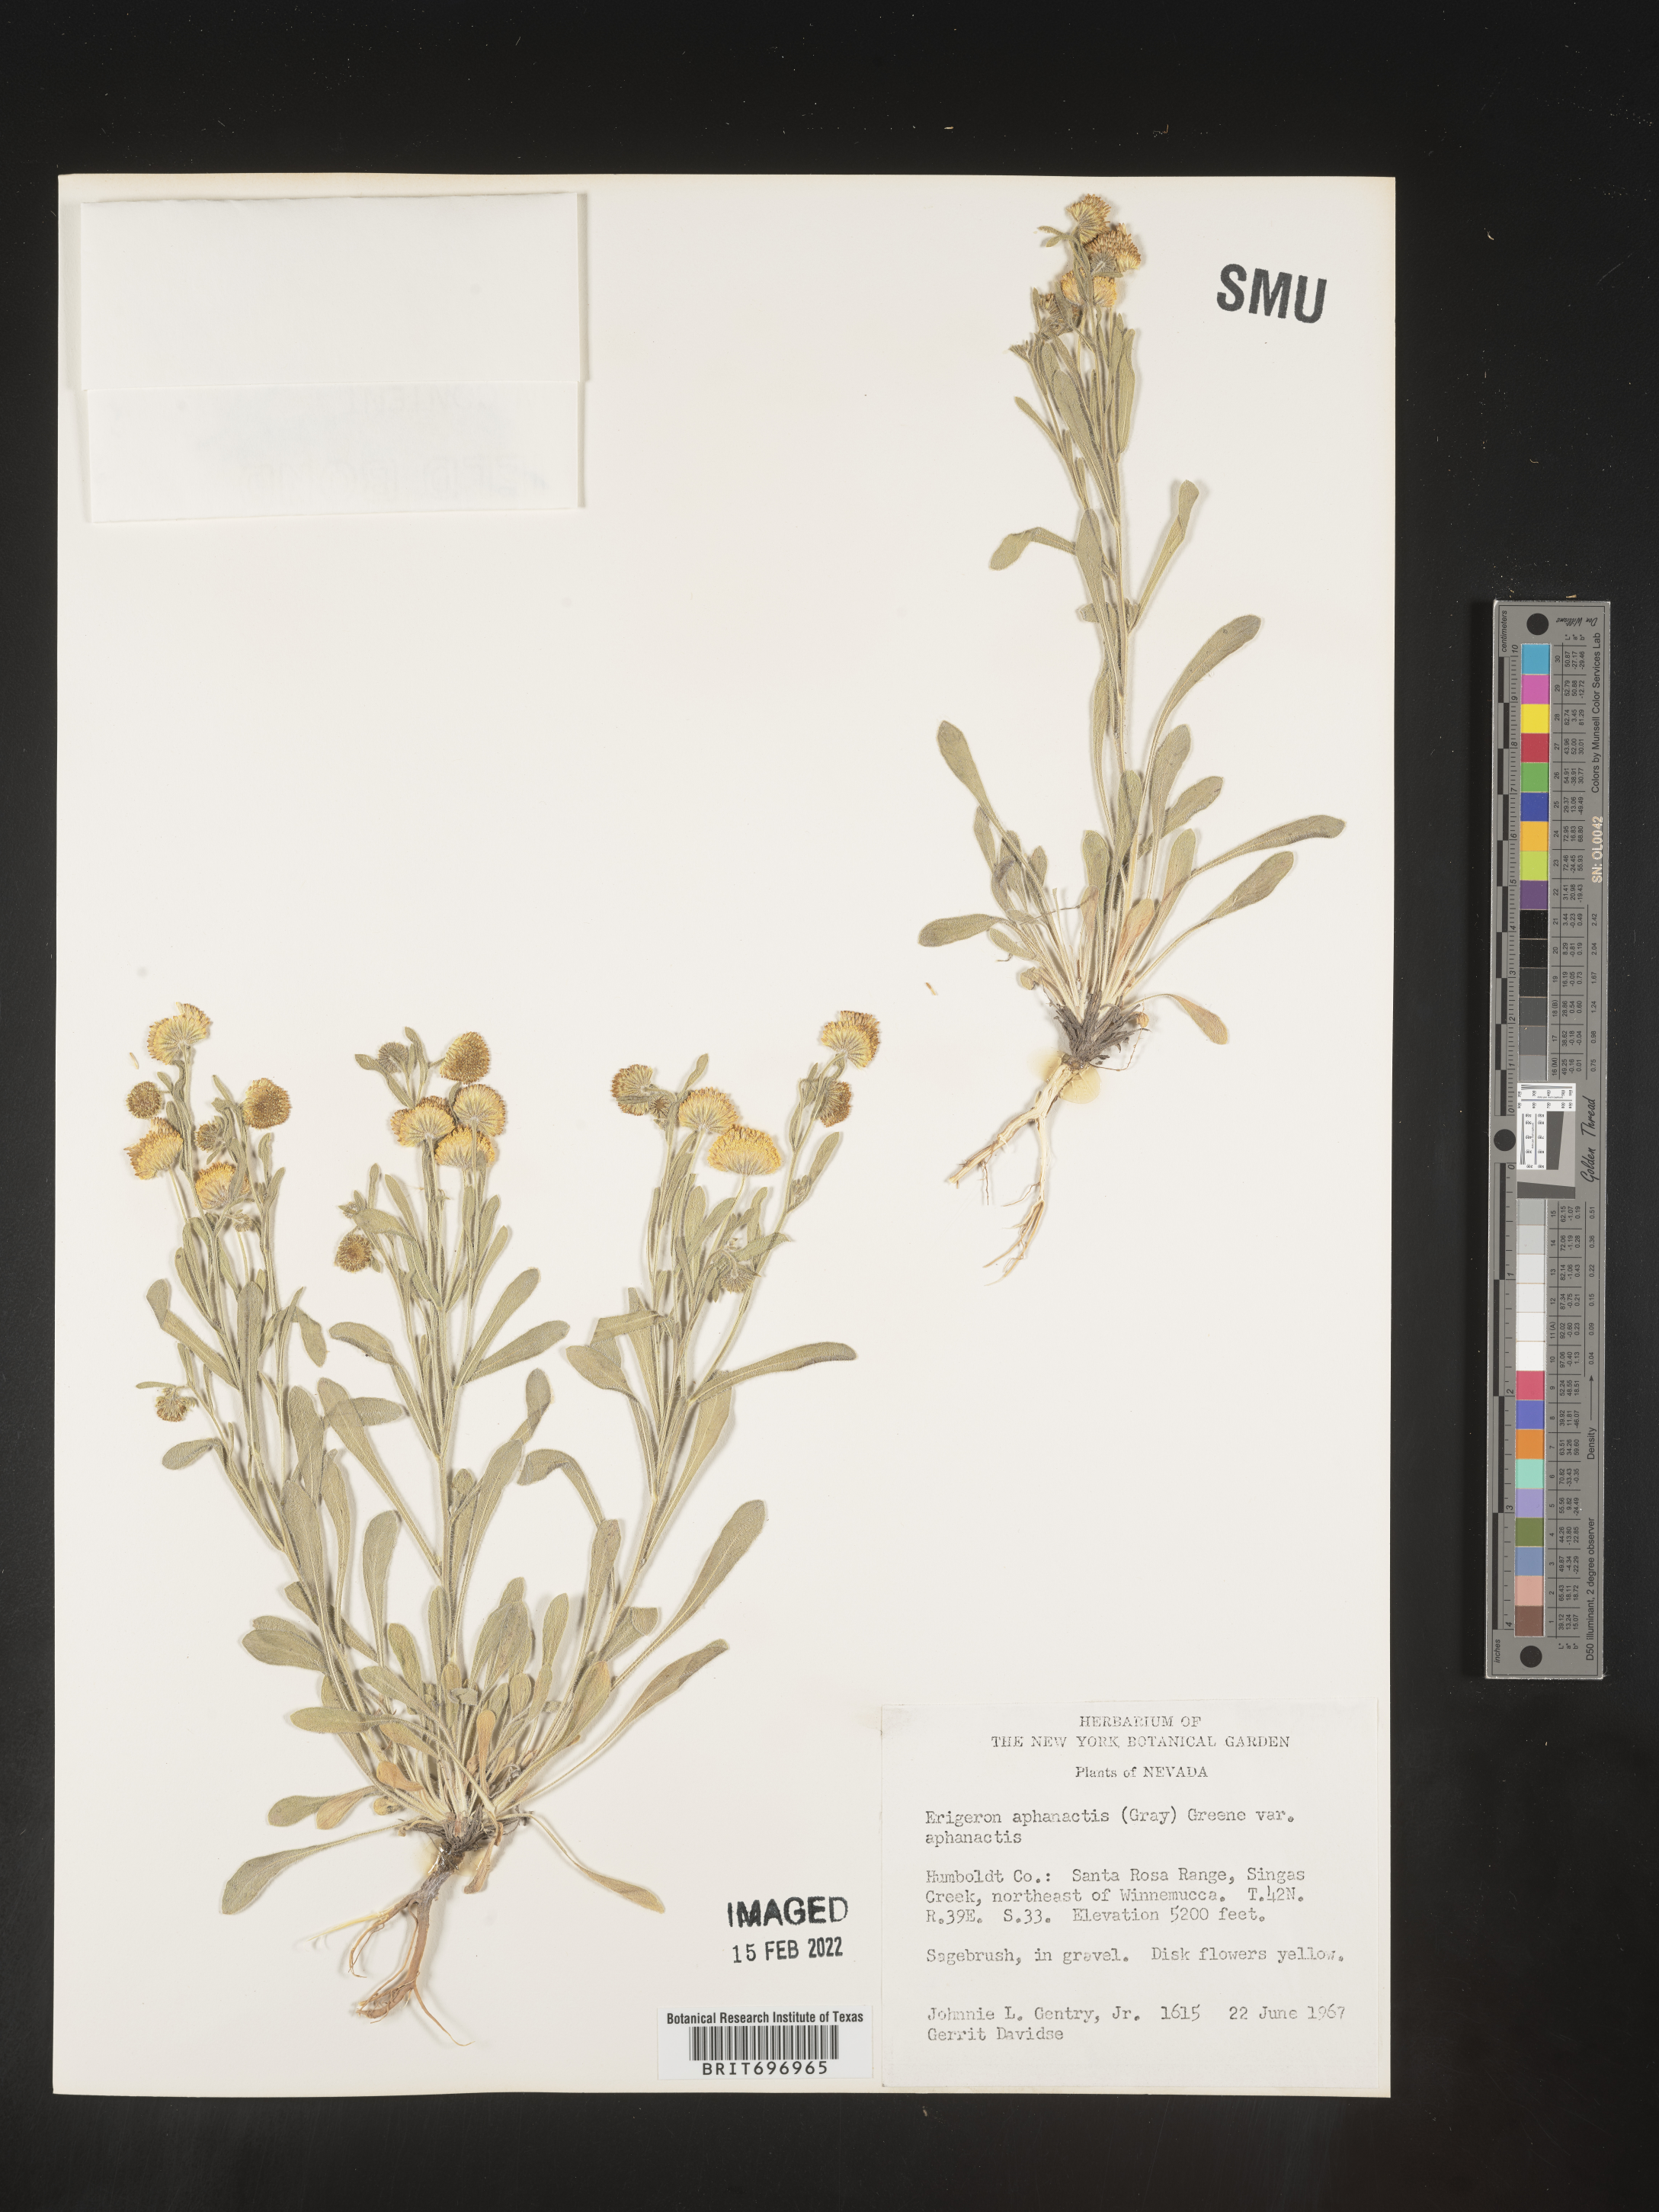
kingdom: Plantae
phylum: Tracheophyta
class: Magnoliopsida
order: Asterales
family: Asteraceae
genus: Erigeron
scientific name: Erigeron aphanactis
